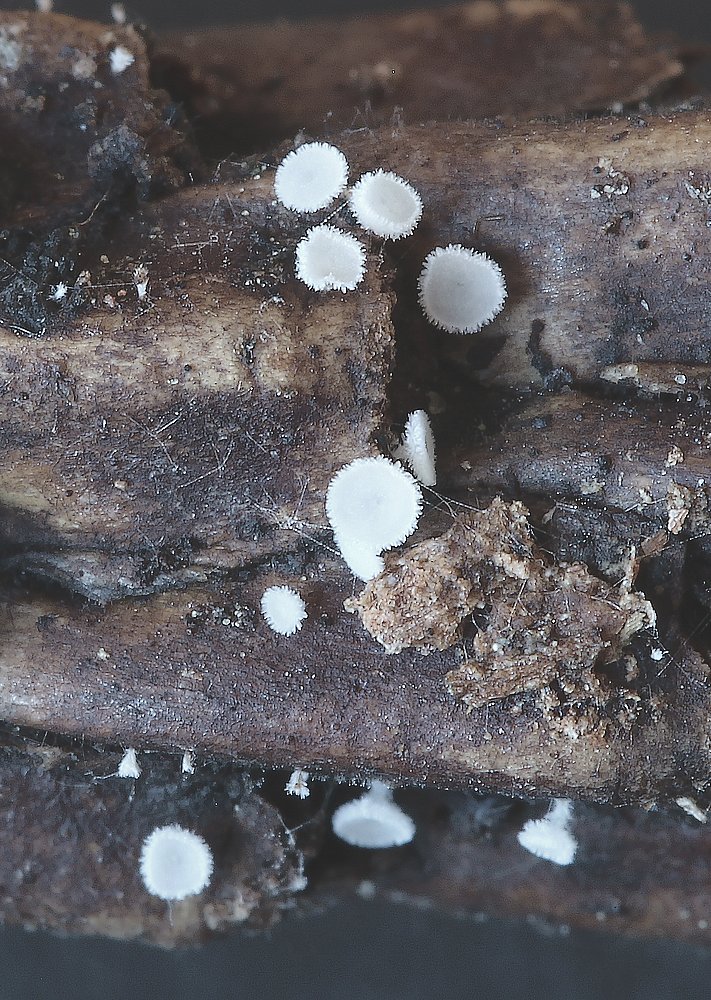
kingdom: Fungi
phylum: Ascomycota
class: Leotiomycetes
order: Helotiales
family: Lachnaceae
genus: Lachnum
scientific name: Lachnum virgineum
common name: jomfru-frynseskive
